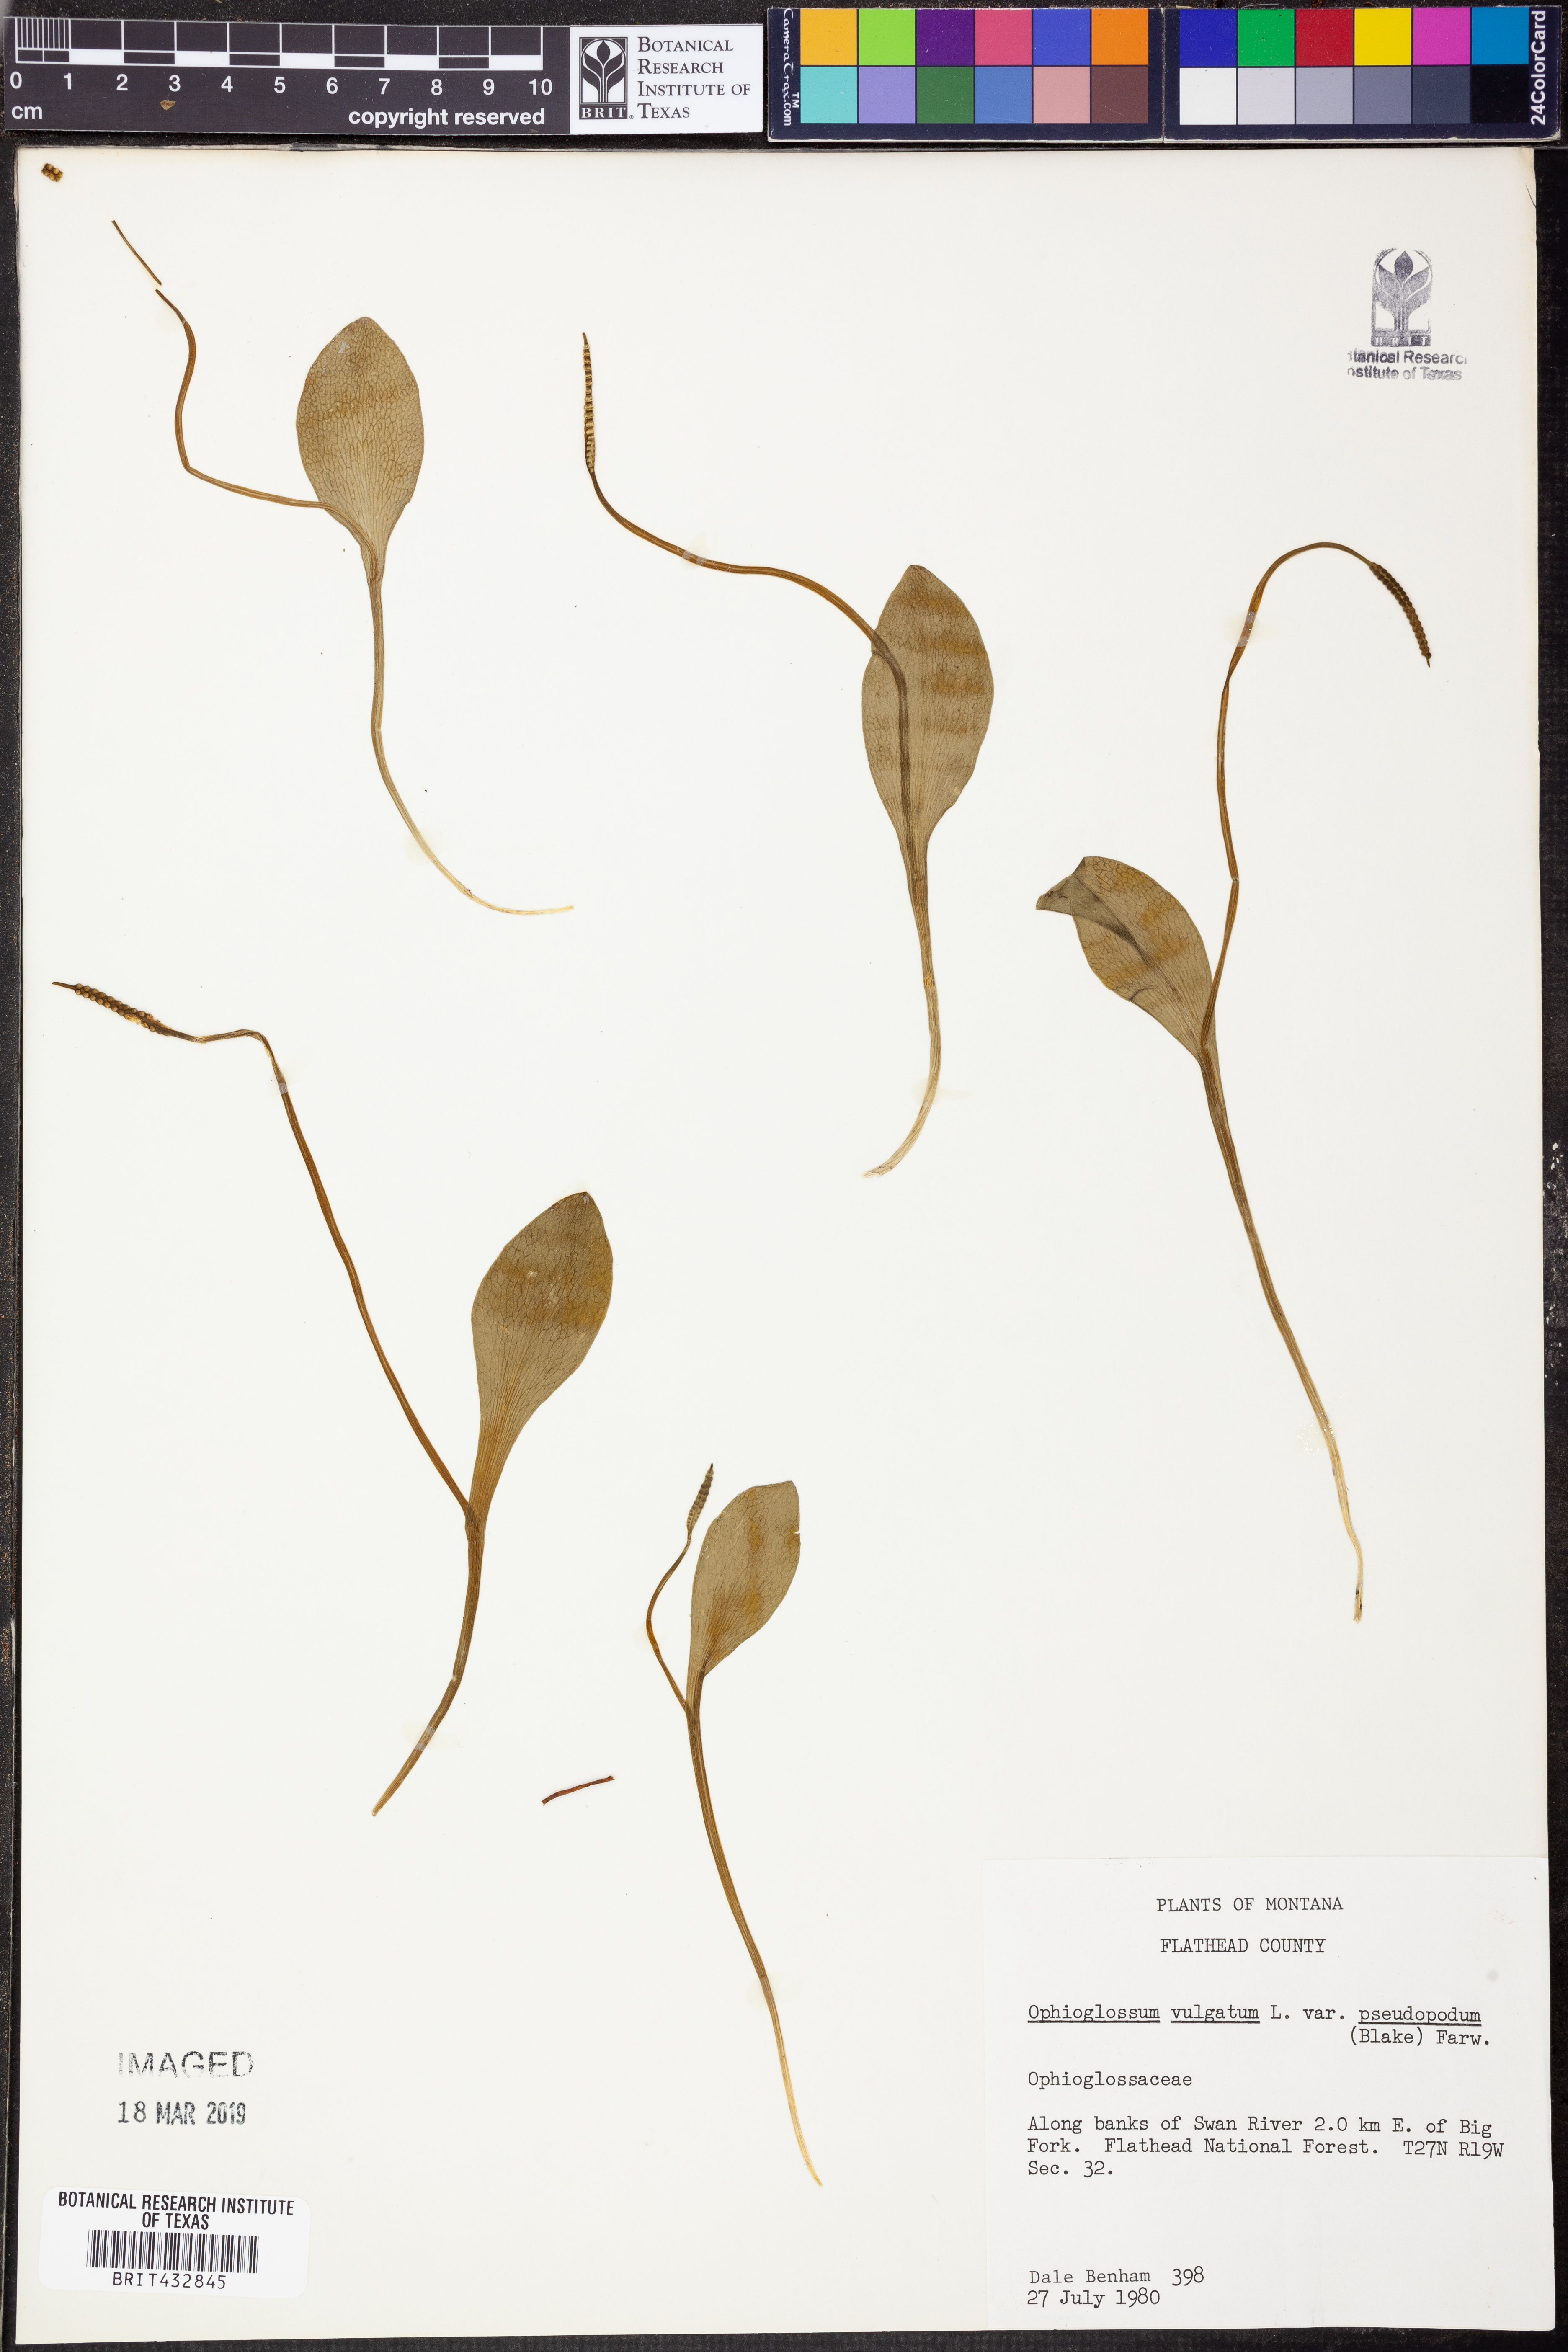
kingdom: Plantae
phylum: Tracheophyta
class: Polypodiopsida
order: Ophioglossales
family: Ophioglossaceae
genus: Ophioglossum
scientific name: Ophioglossum pusillum
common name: Northern adder's-tongue
